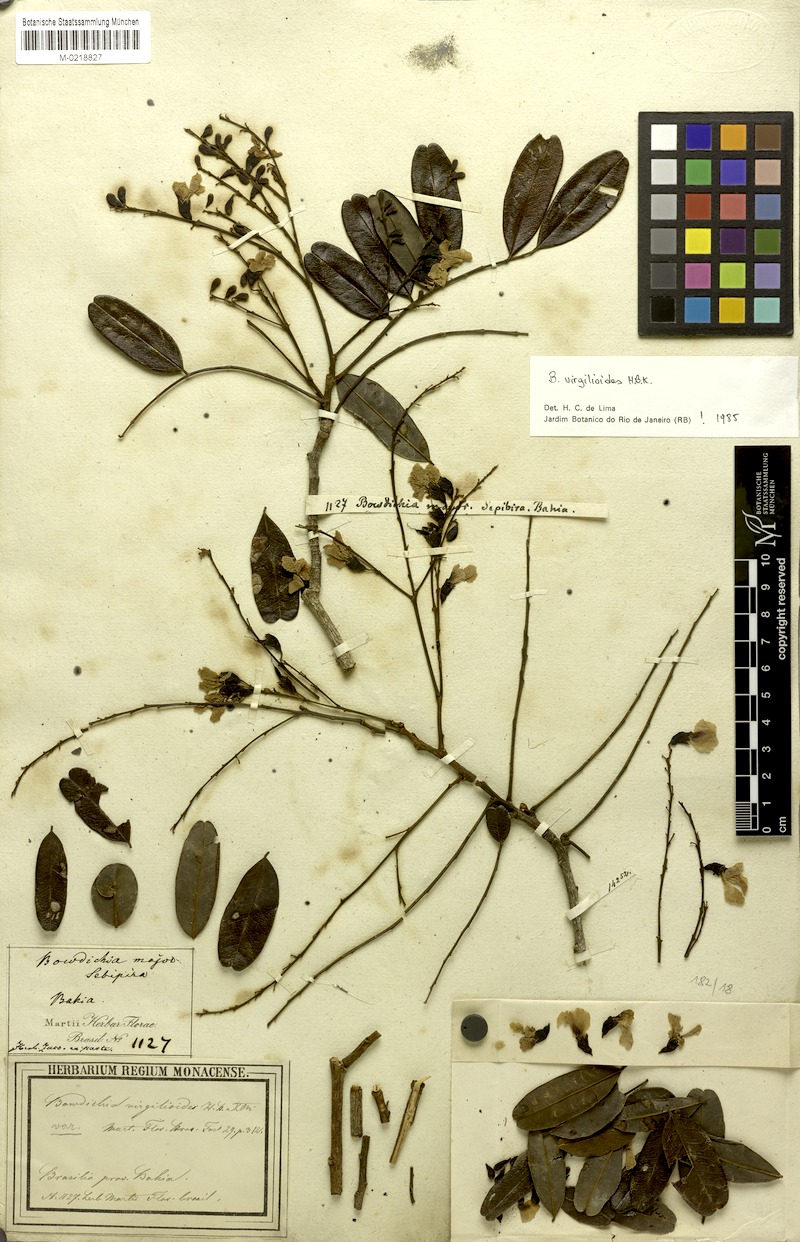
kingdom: Plantae
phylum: Tracheophyta
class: Magnoliopsida
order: Fabales
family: Fabaceae
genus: Bowdichia
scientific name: Bowdichia virgilioides
